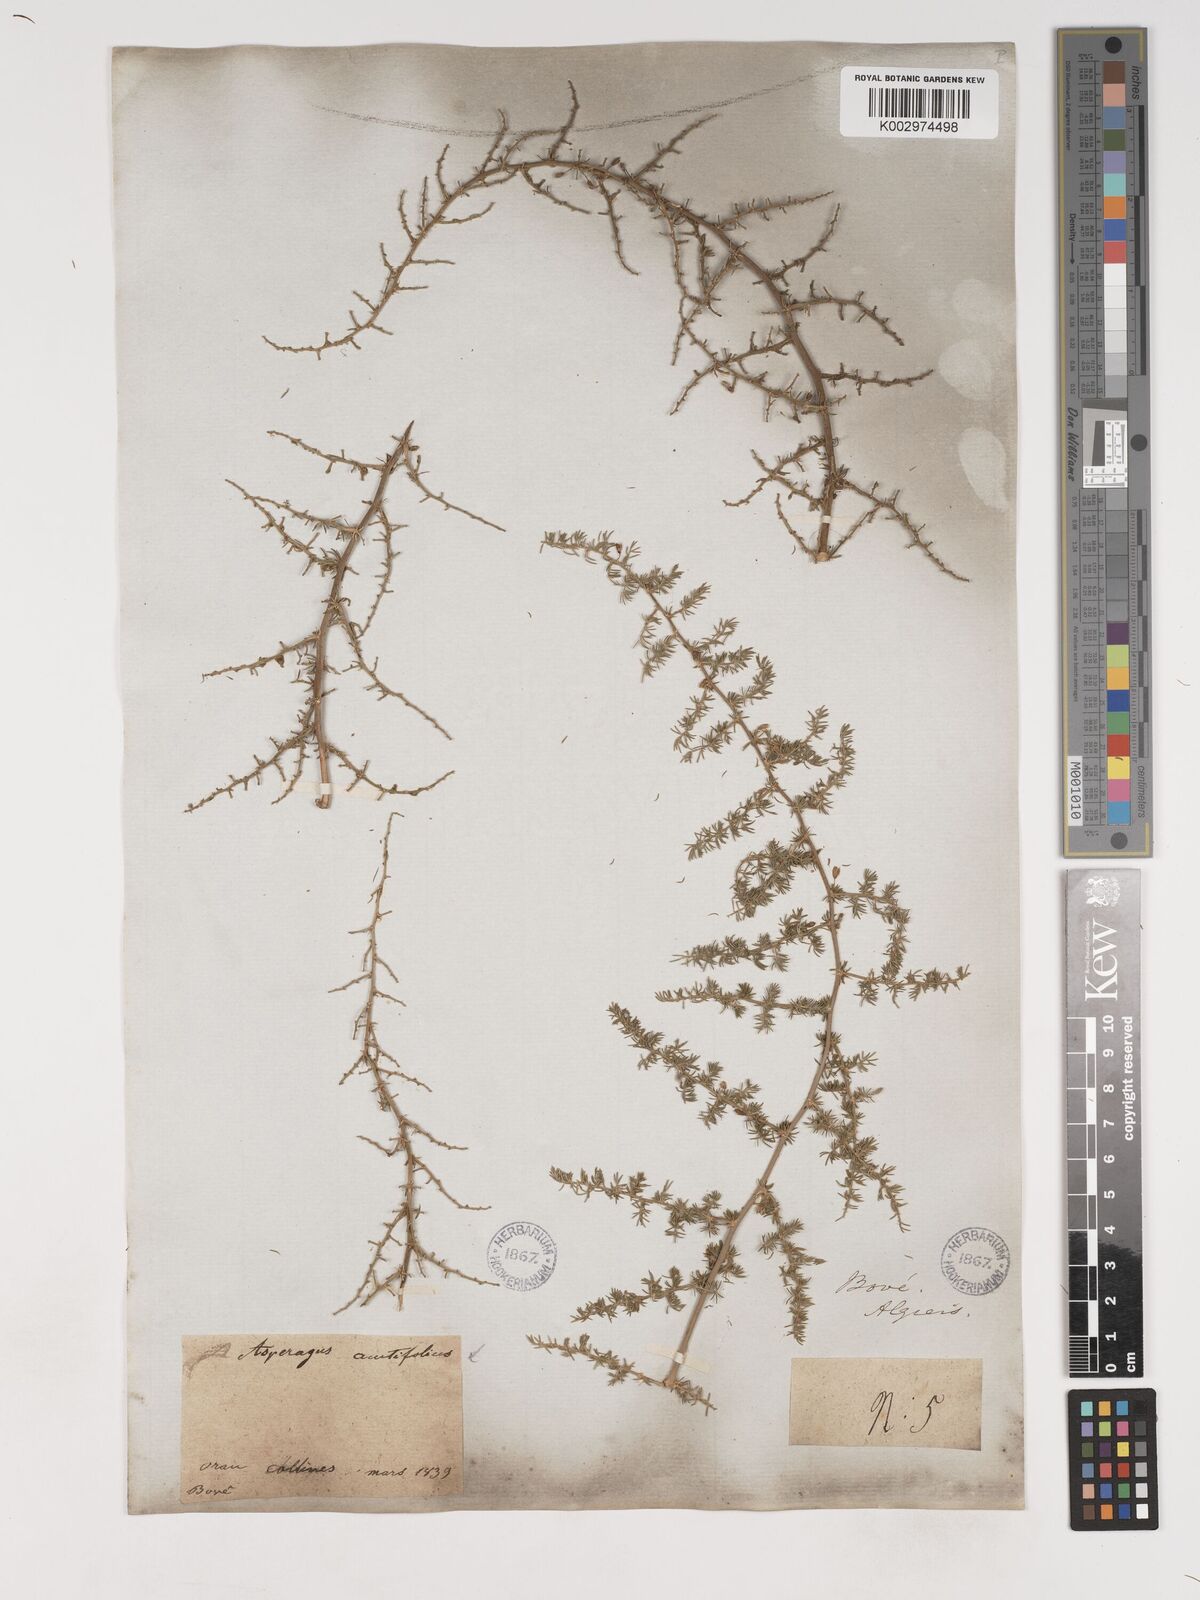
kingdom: Plantae
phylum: Tracheophyta
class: Liliopsida
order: Asparagales
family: Asparagaceae
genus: Asparagus
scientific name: Asparagus acutifolius
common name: Wild asparagus
